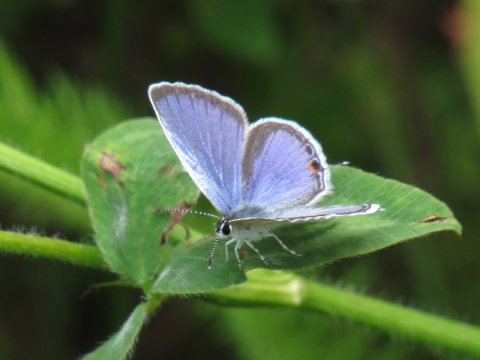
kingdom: Animalia
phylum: Arthropoda
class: Insecta
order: Lepidoptera
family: Lycaenidae
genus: Elkalyce
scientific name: Elkalyce comyntas
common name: Eastern Tailed-Blue
